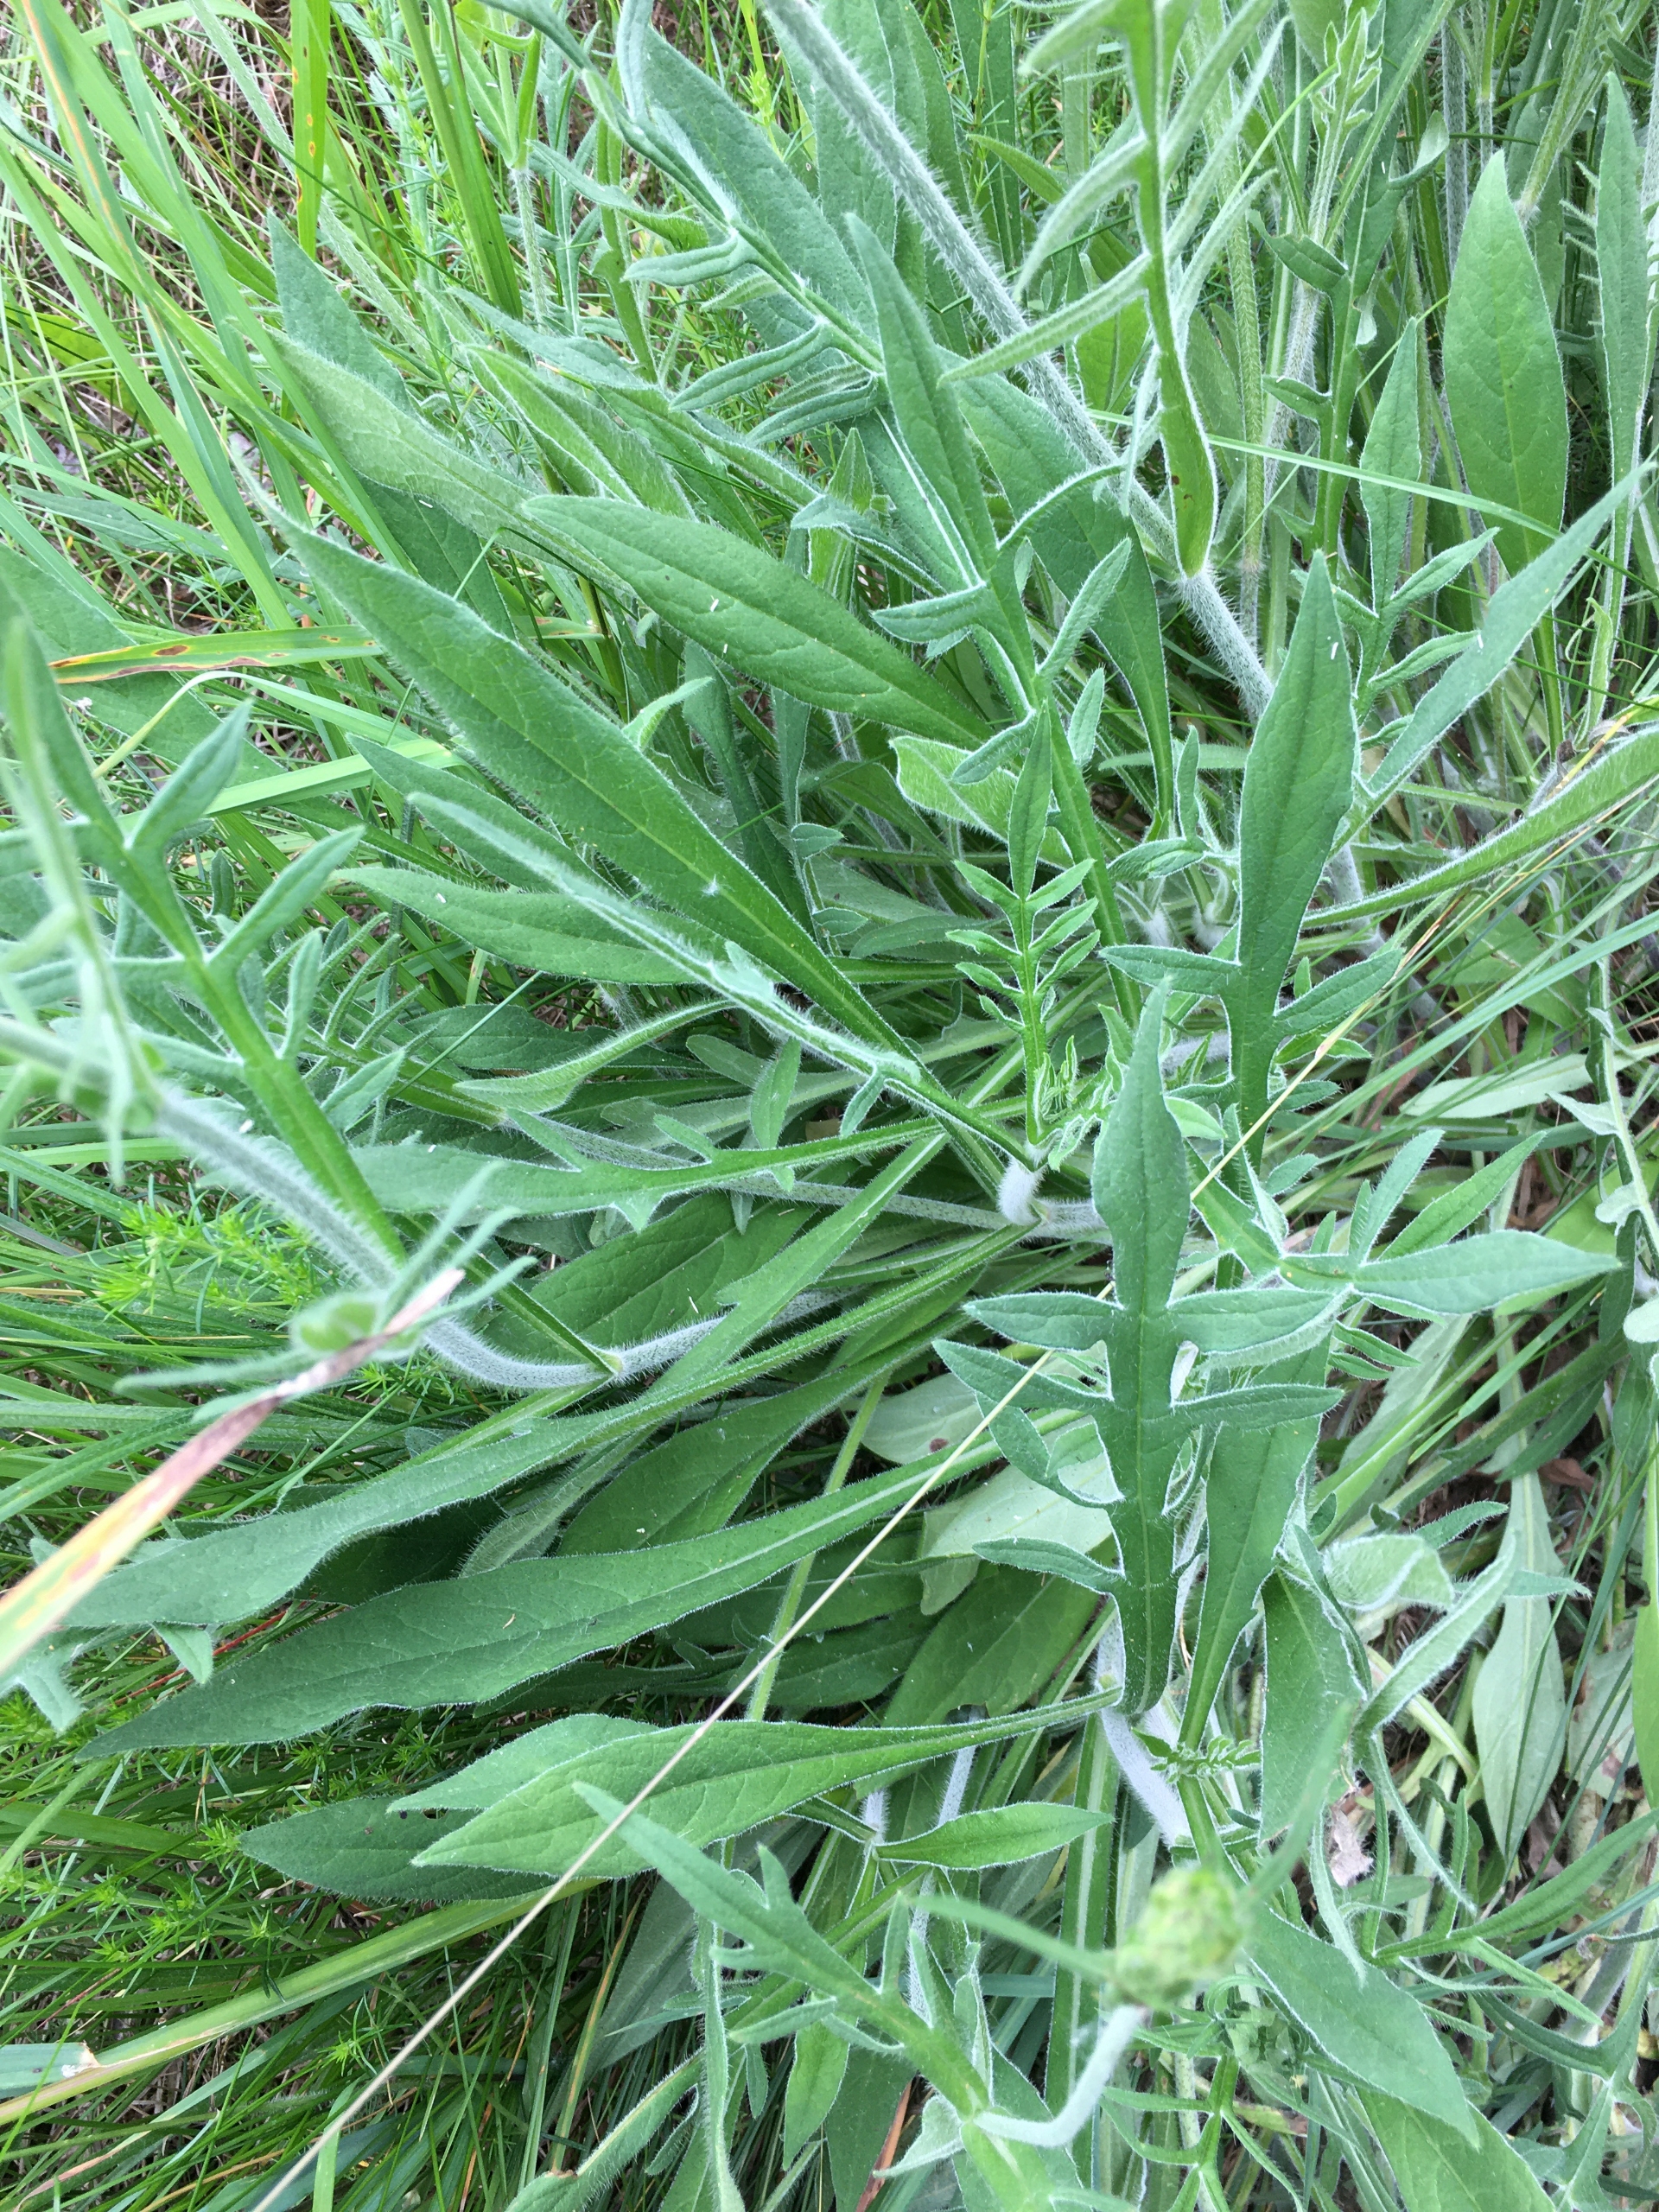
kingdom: Plantae
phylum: Tracheophyta
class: Magnoliopsida
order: Dipsacales
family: Caprifoliaceae
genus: Knautia
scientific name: Knautia arvensis
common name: Blåhat
